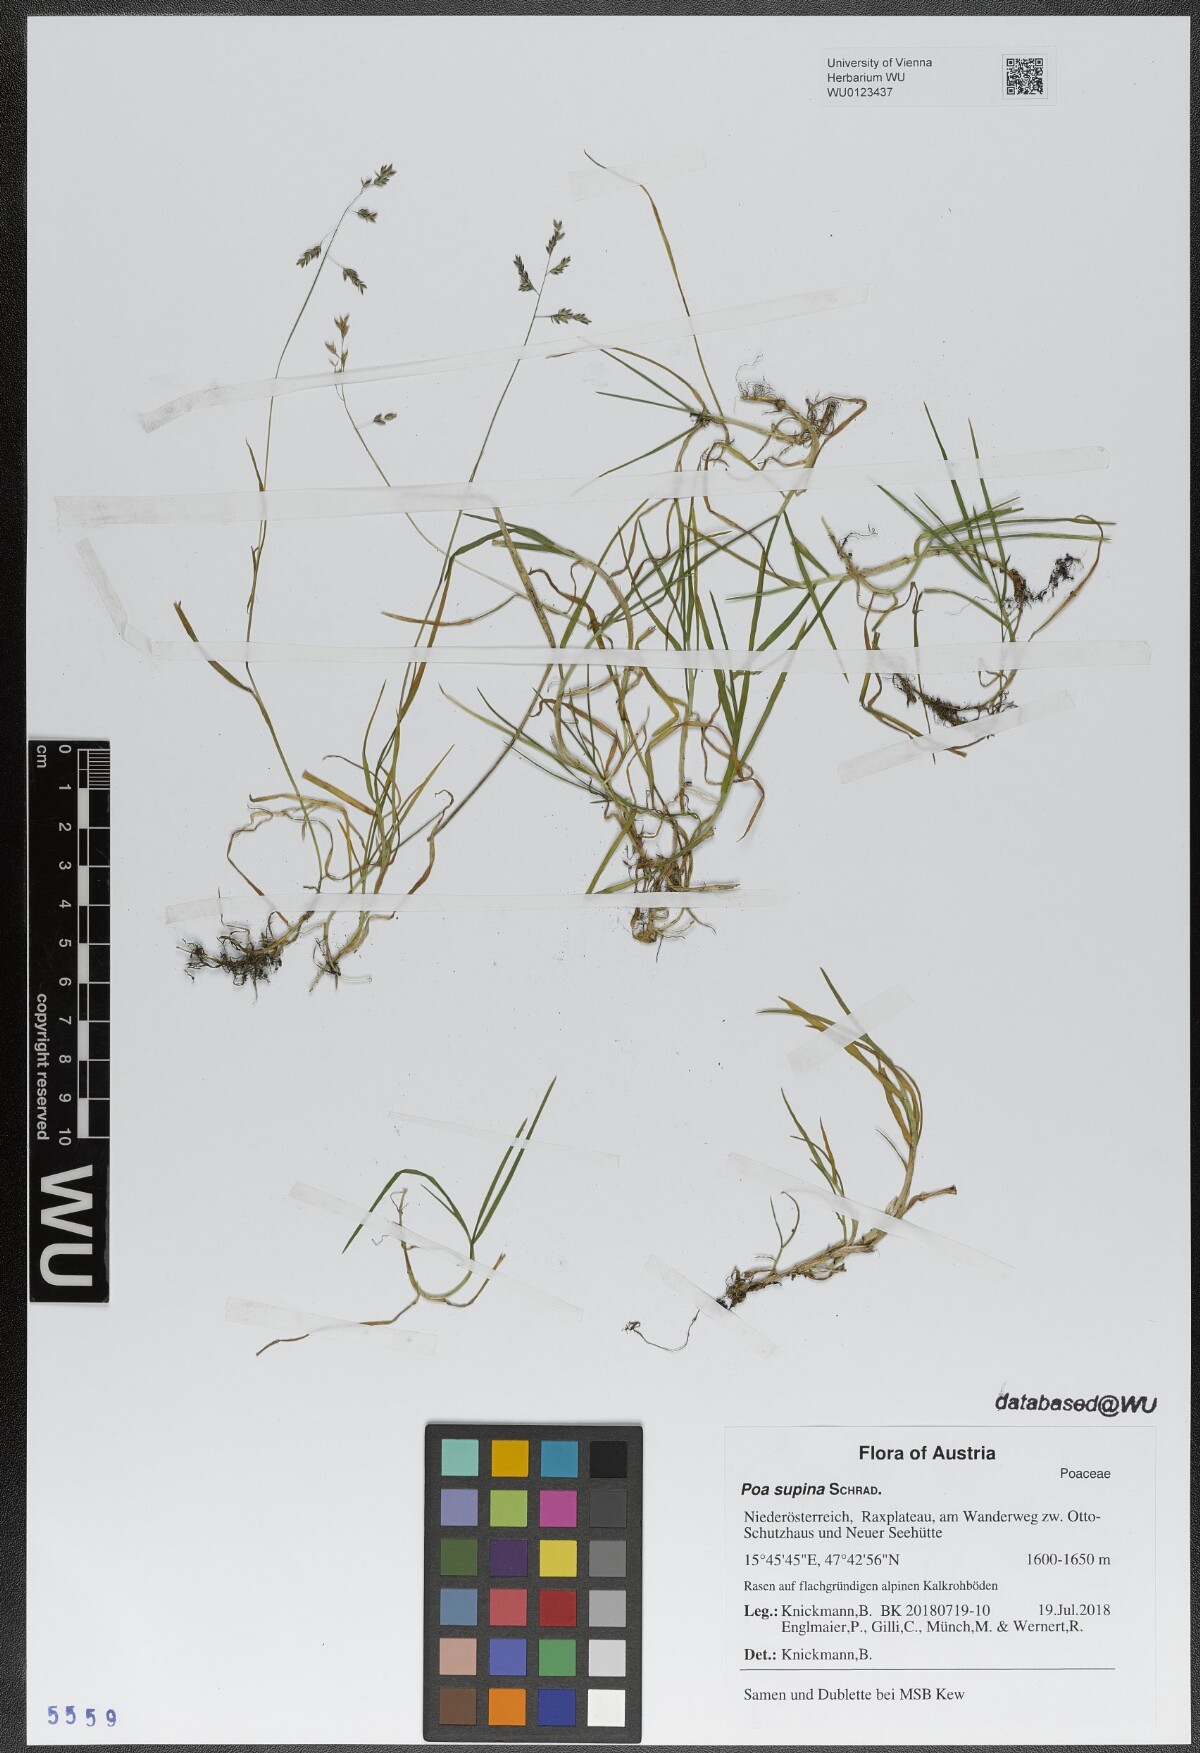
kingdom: Plantae
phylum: Tracheophyta
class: Liliopsida
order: Poales
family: Poaceae
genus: Poa
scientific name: Poa supina
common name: Supina bluegrass
